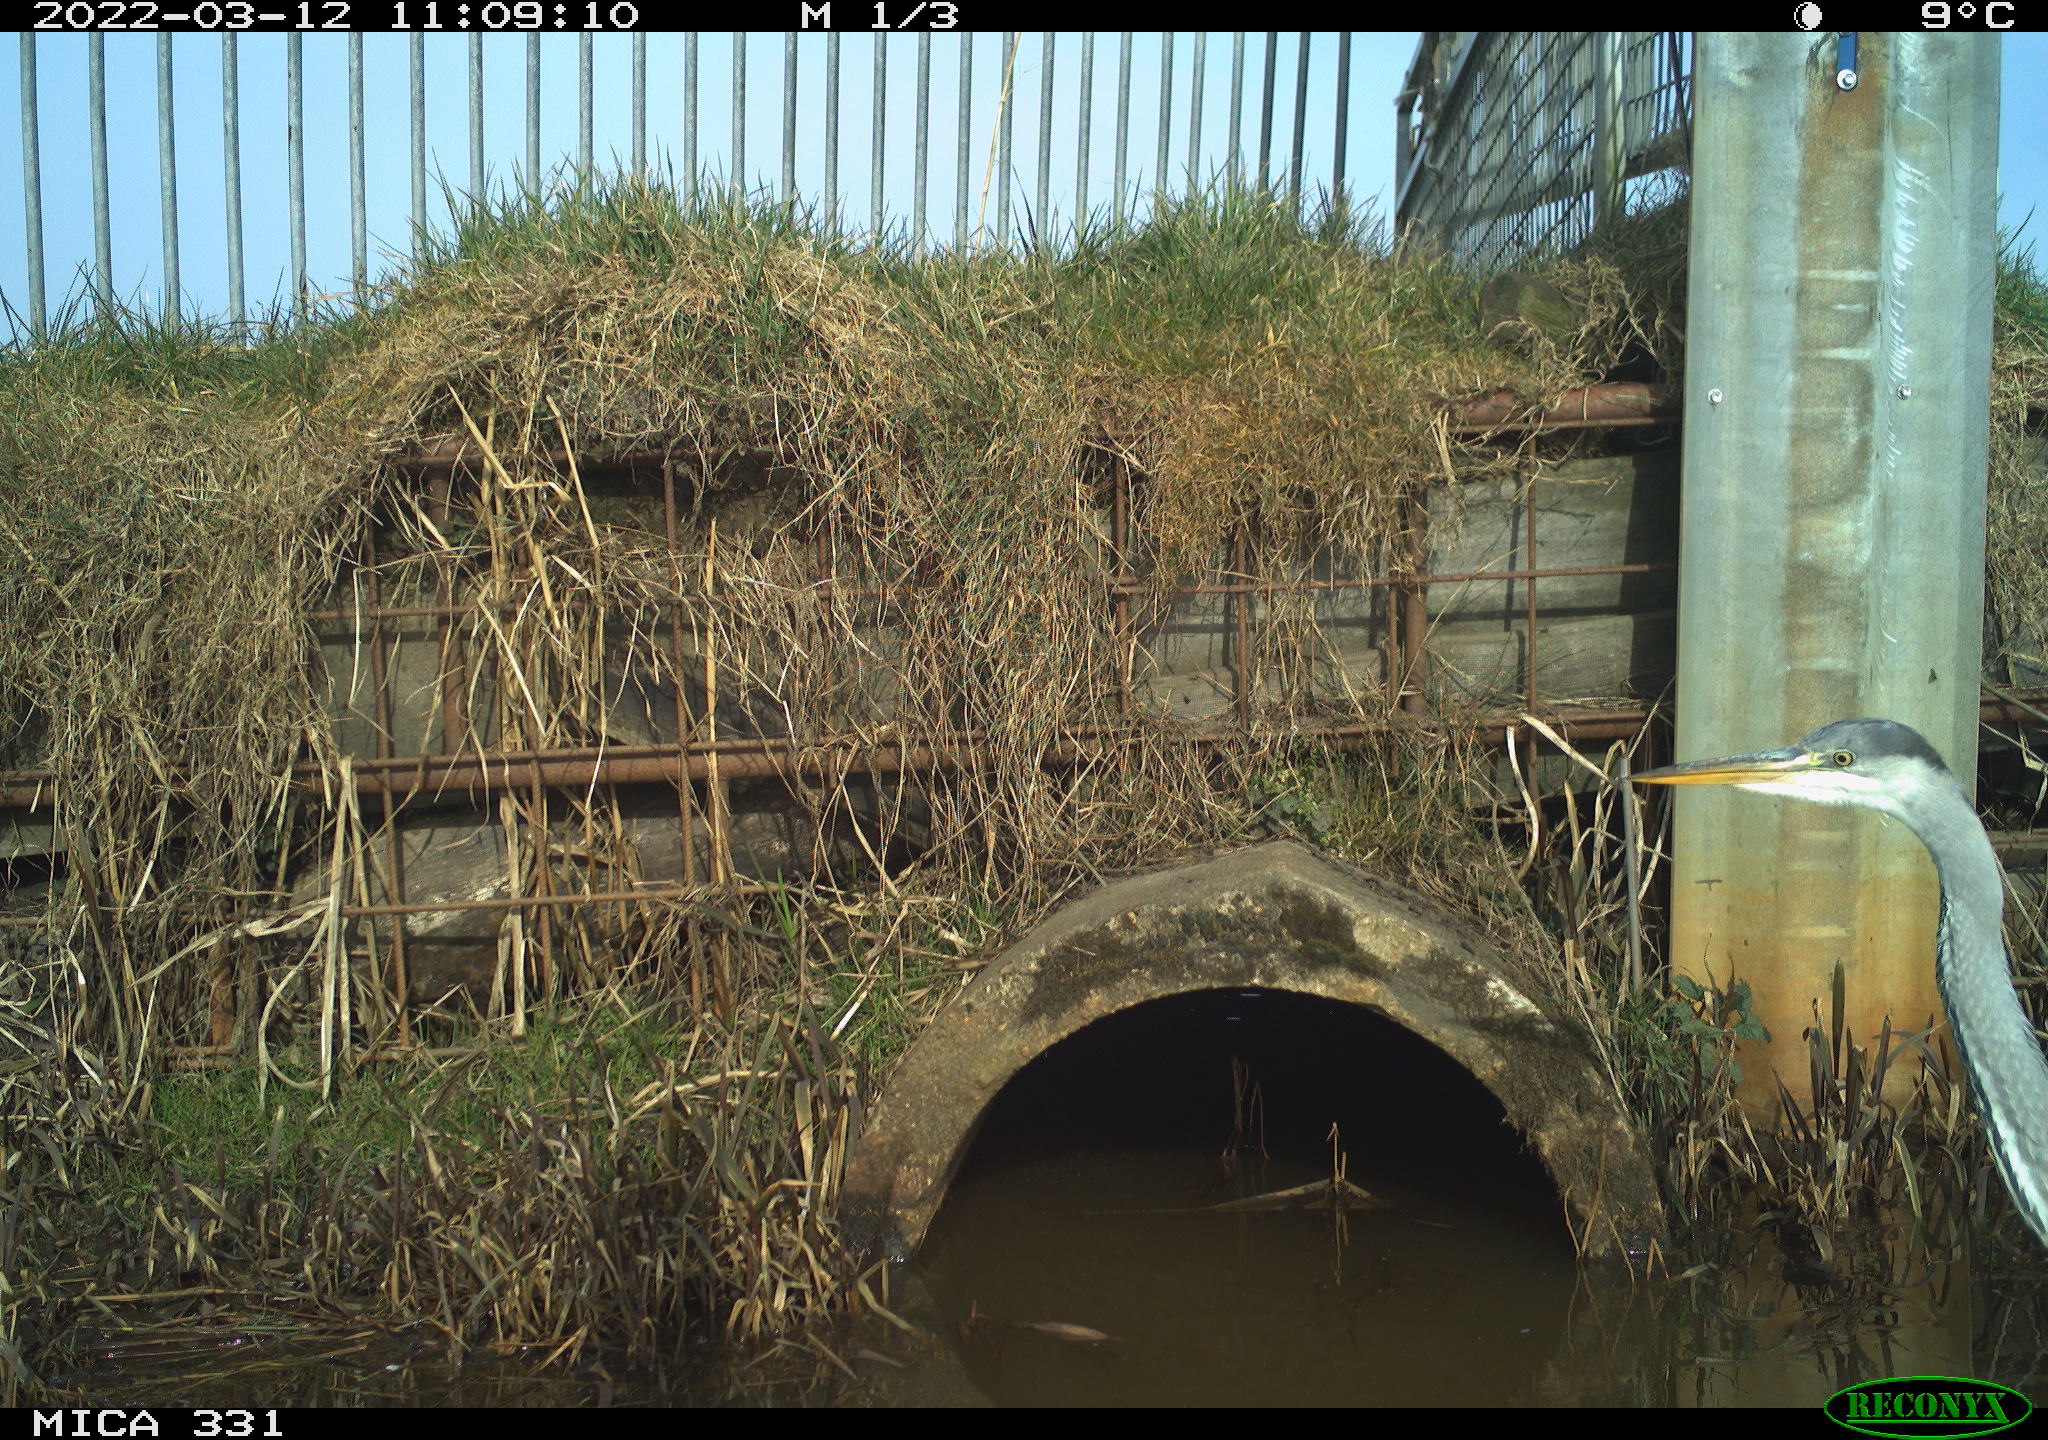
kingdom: Animalia
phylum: Chordata
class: Aves
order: Pelecaniformes
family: Ardeidae
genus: Ardea
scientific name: Ardea cinerea
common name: Grey heron
